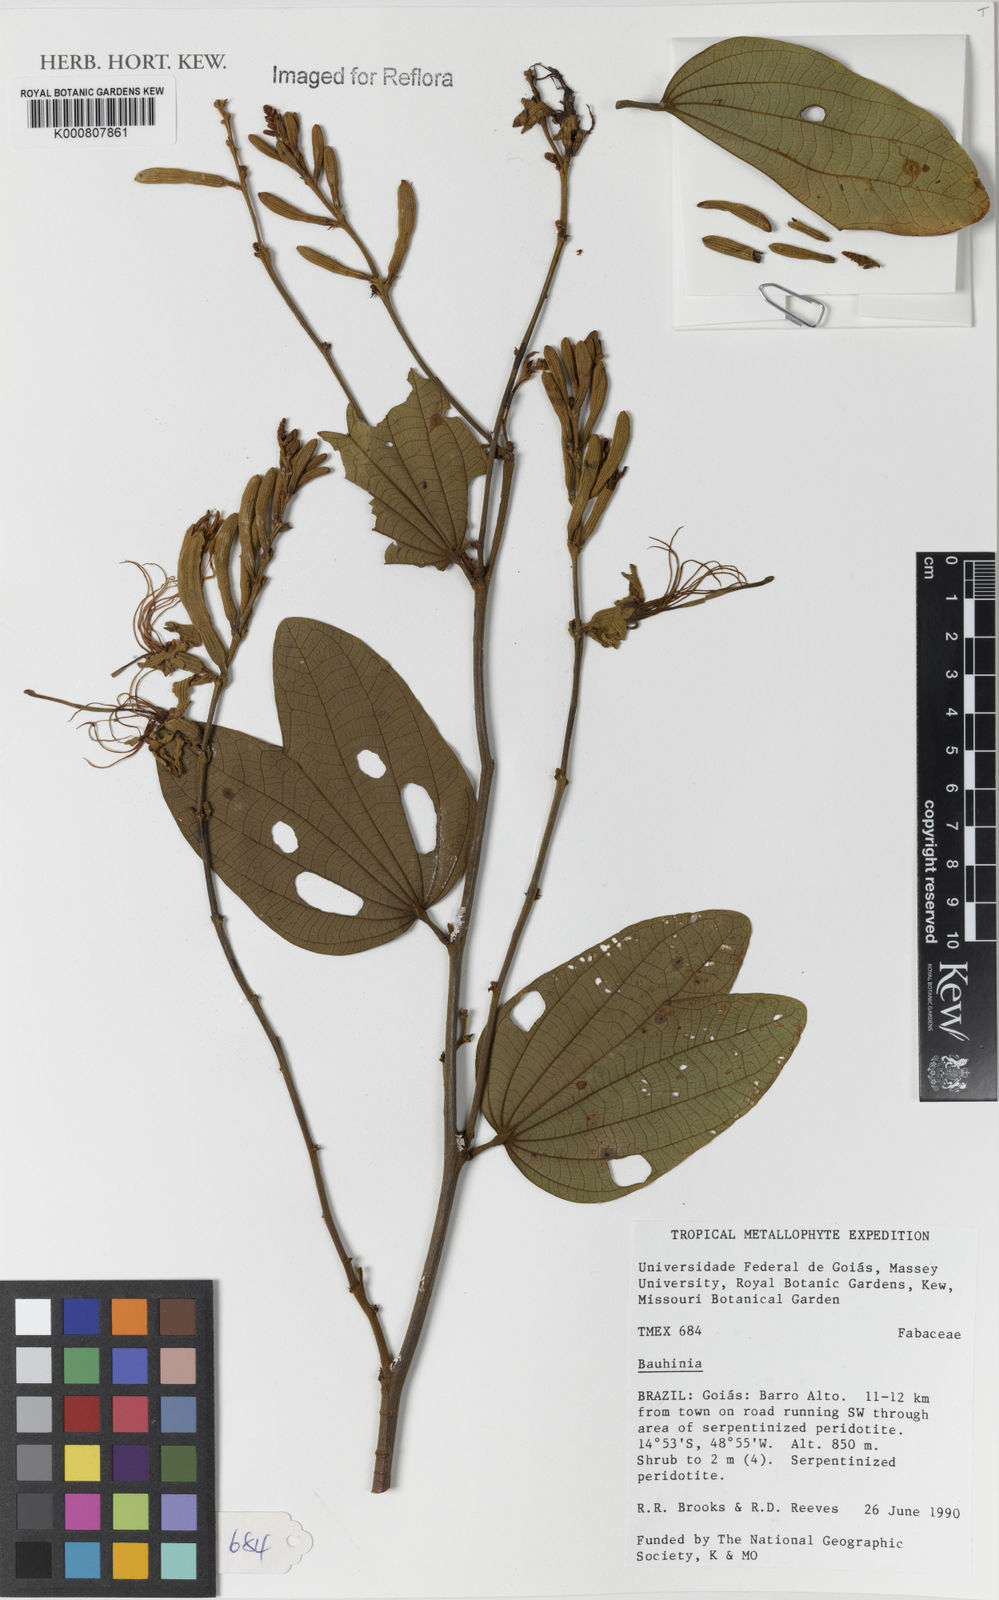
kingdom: Plantae
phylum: Tracheophyta
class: Magnoliopsida
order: Fabales
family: Fabaceae
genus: Bauhinia
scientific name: Bauhinia
